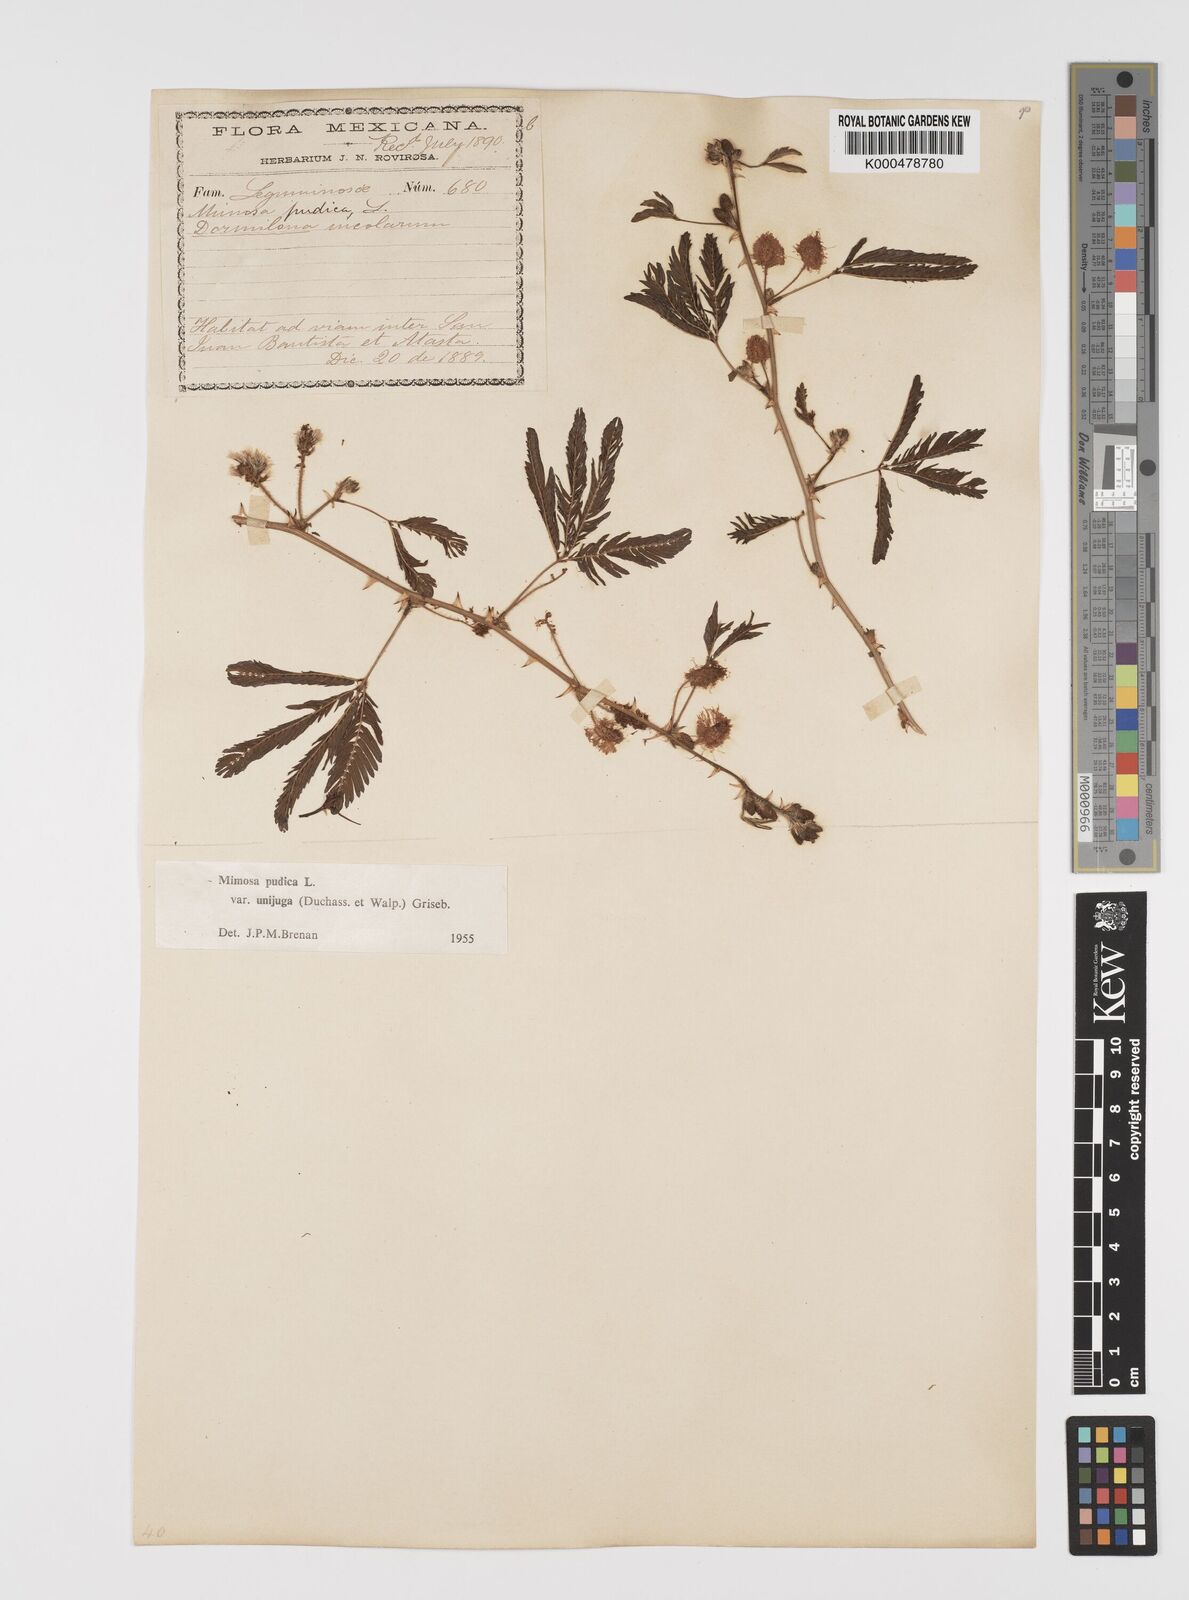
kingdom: Plantae
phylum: Tracheophyta
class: Magnoliopsida
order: Fabales
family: Fabaceae
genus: Mimosa
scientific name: Mimosa pudica
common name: Sensitive plant
